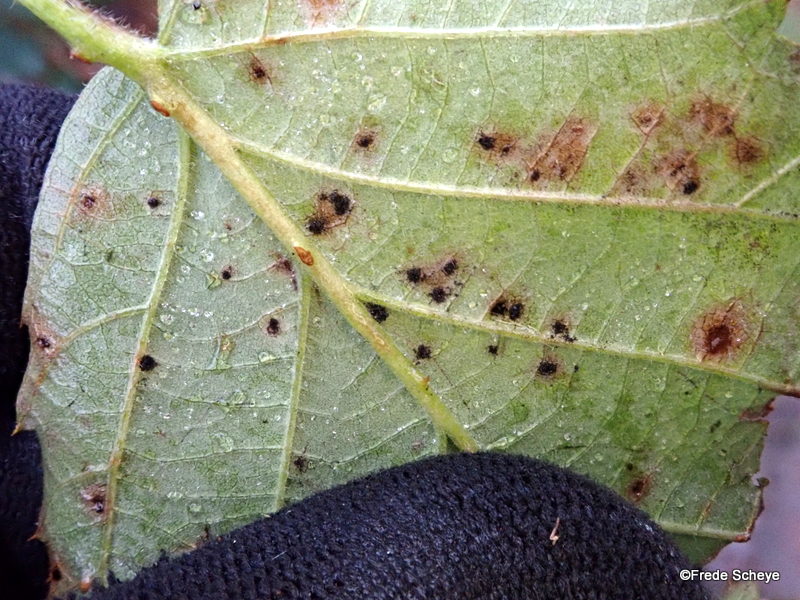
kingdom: Fungi
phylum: Basidiomycota
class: Pucciniomycetes
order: Pucciniales
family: Phragmidiaceae
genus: Phragmidium
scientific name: Phragmidium violaceum
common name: violet flercellerust
